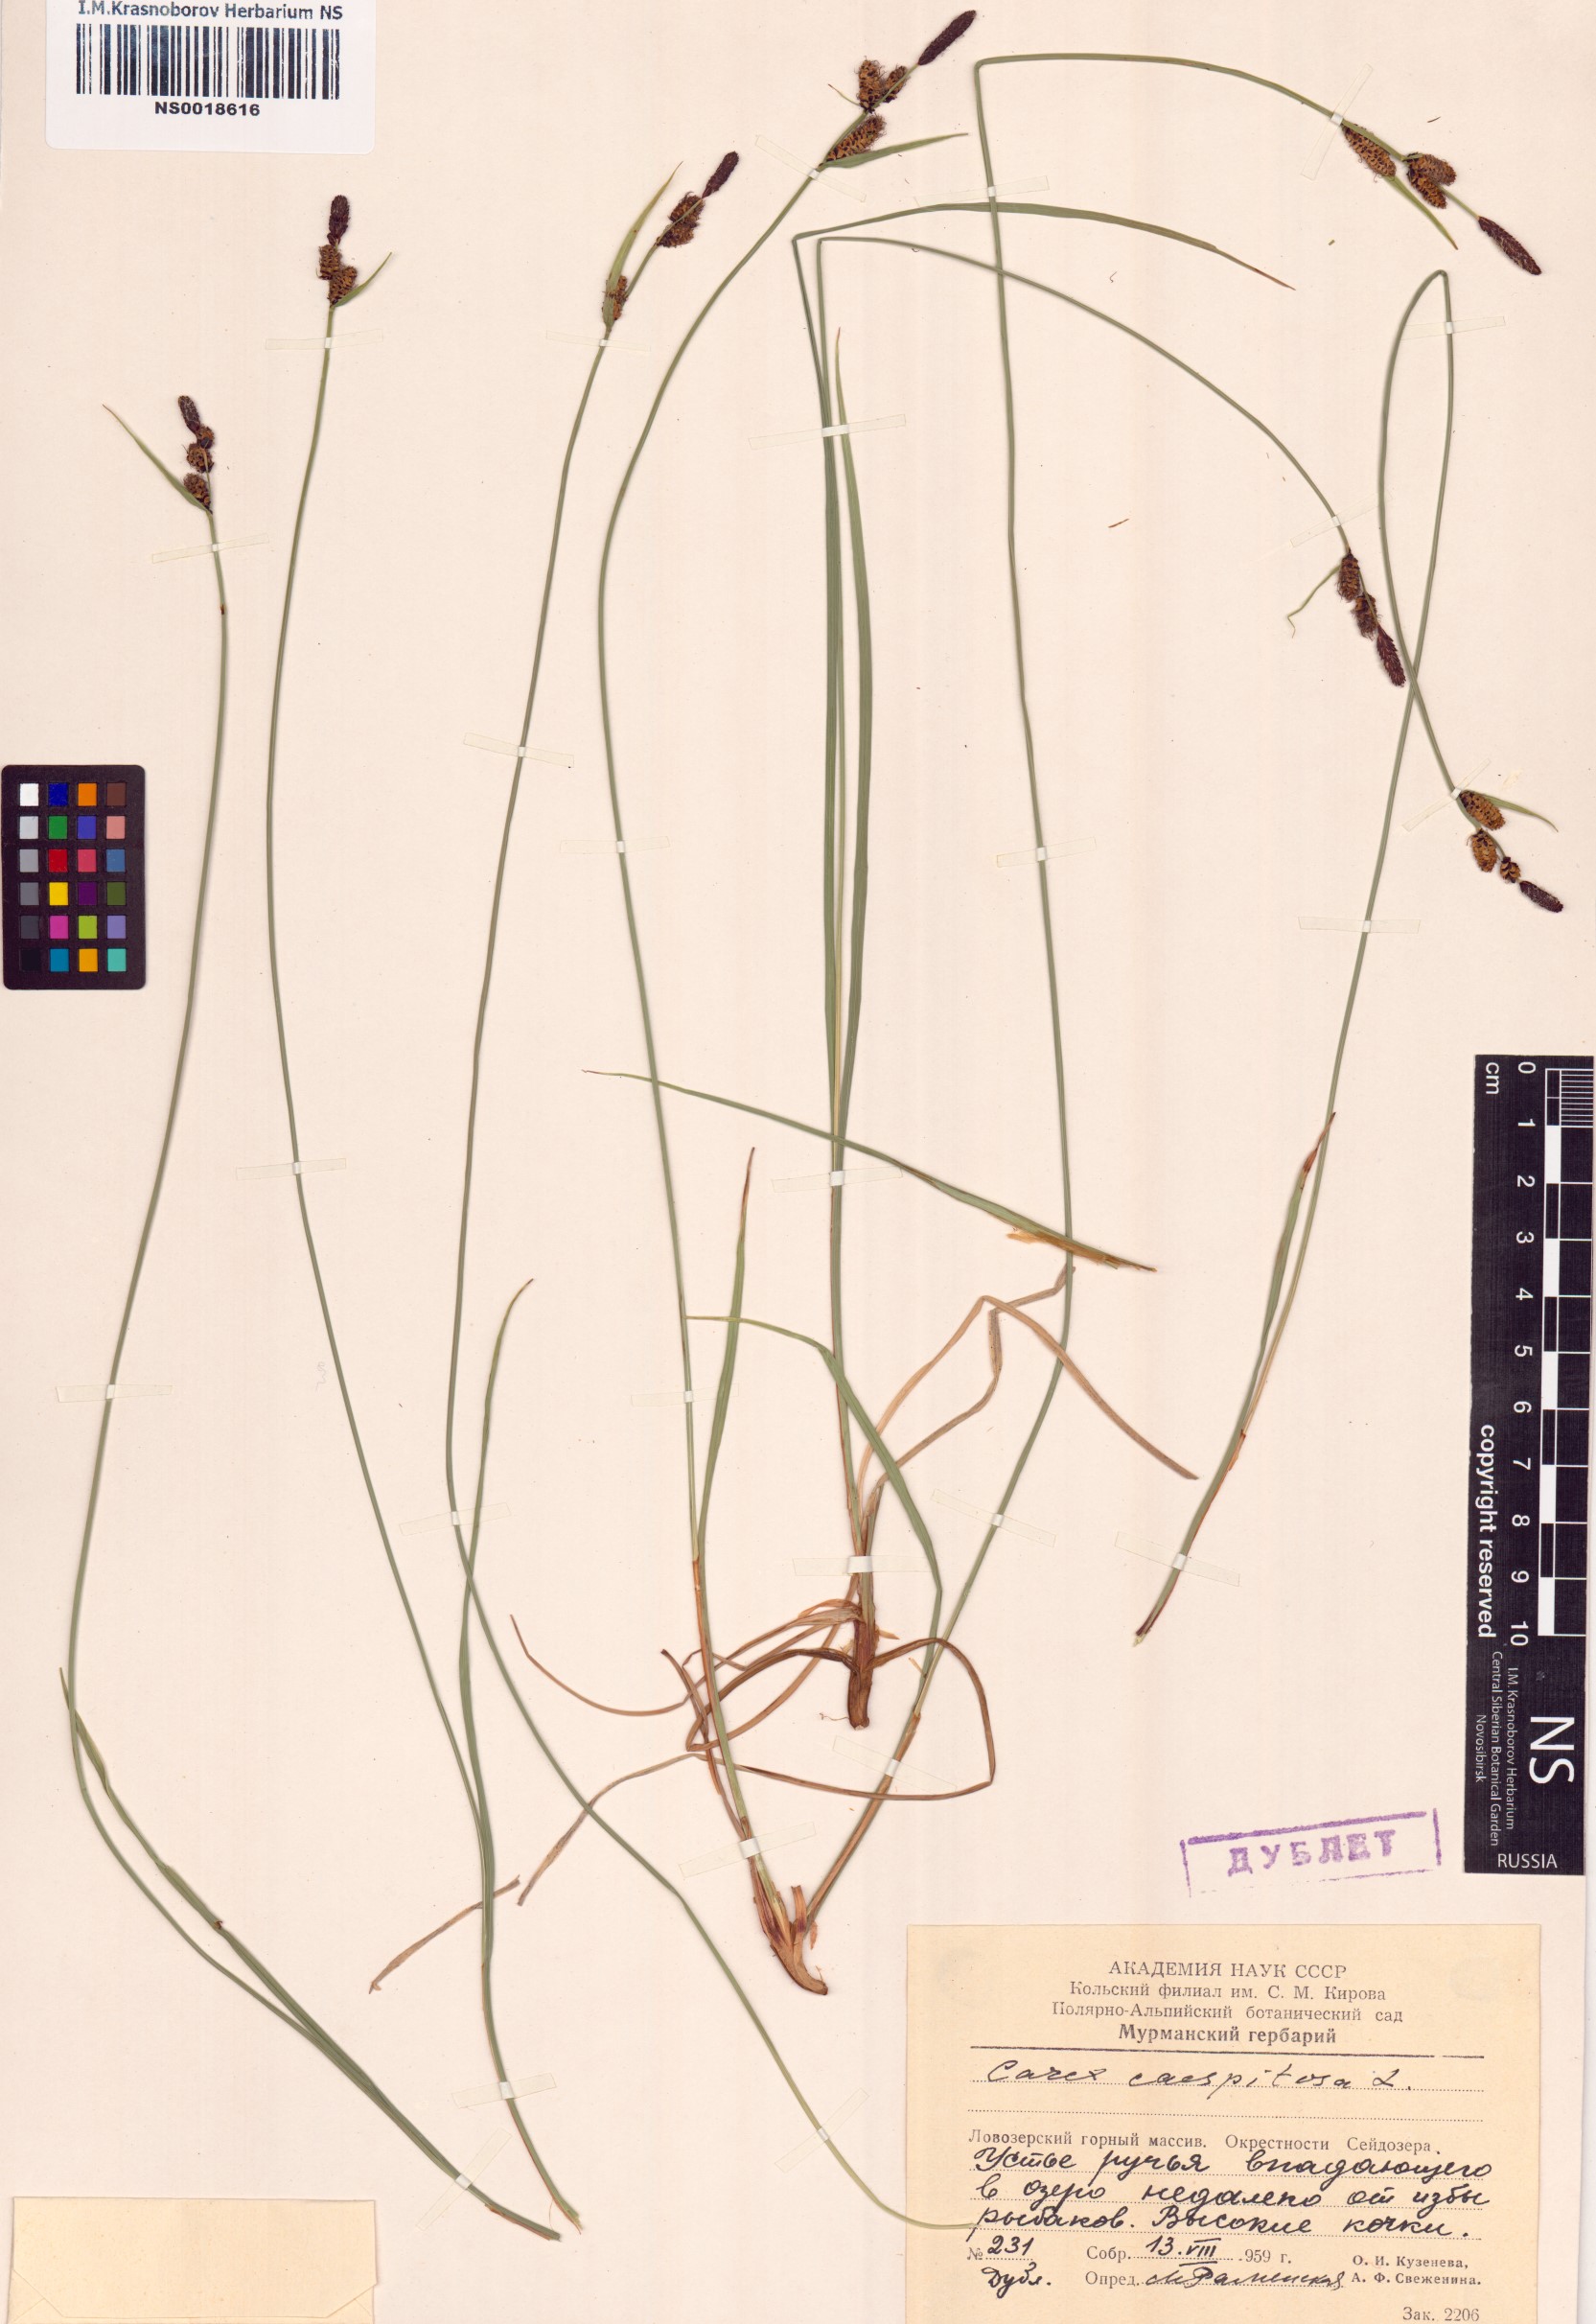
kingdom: Plantae
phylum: Tracheophyta
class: Liliopsida
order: Poales
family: Cyperaceae
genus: Carex
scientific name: Carex cespitosa
